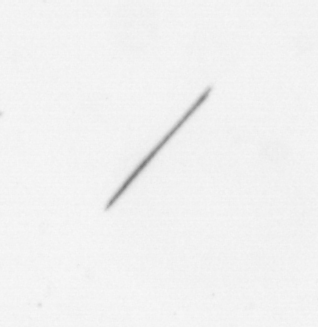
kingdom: Chromista
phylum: Ochrophyta
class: Bacillariophyceae
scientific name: Bacillariophyceae
